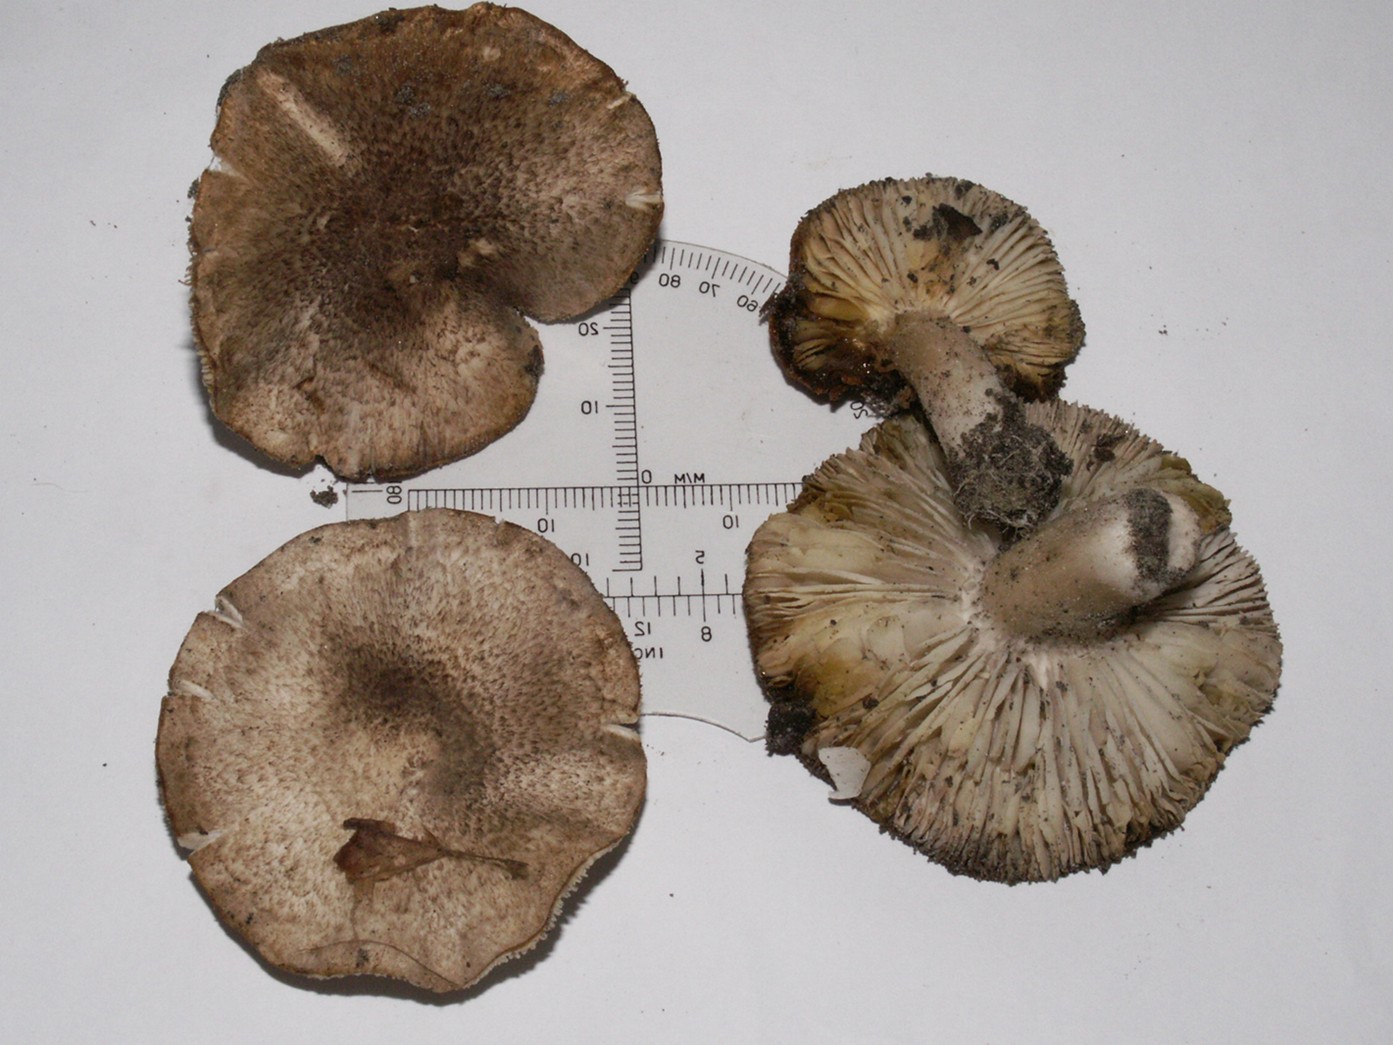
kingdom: Fungi
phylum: Basidiomycota
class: Agaricomycetes
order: Agaricales
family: Tricholomataceae
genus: Tricholoma
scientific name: Tricholoma scalpturatum
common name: gulplettet ridderhat
